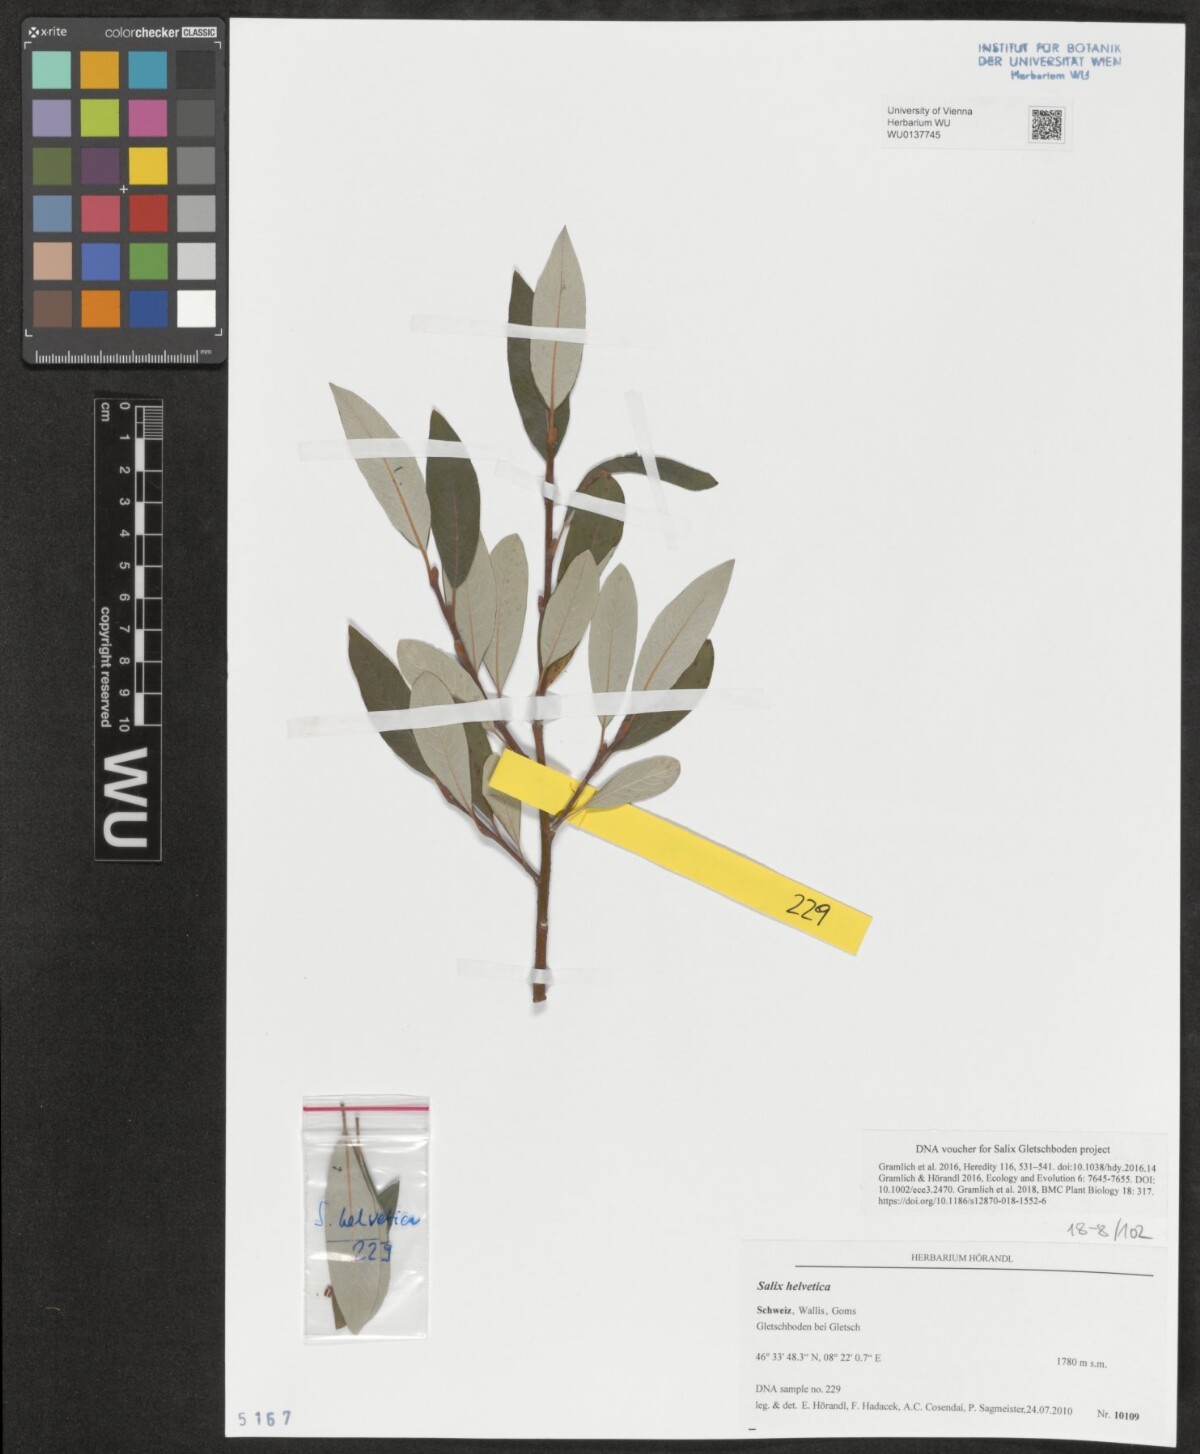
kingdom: Plantae
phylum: Tracheophyta
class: Magnoliopsida
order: Malpighiales
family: Salicaceae
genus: Salix
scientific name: Salix helvetica
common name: Swiss willow
